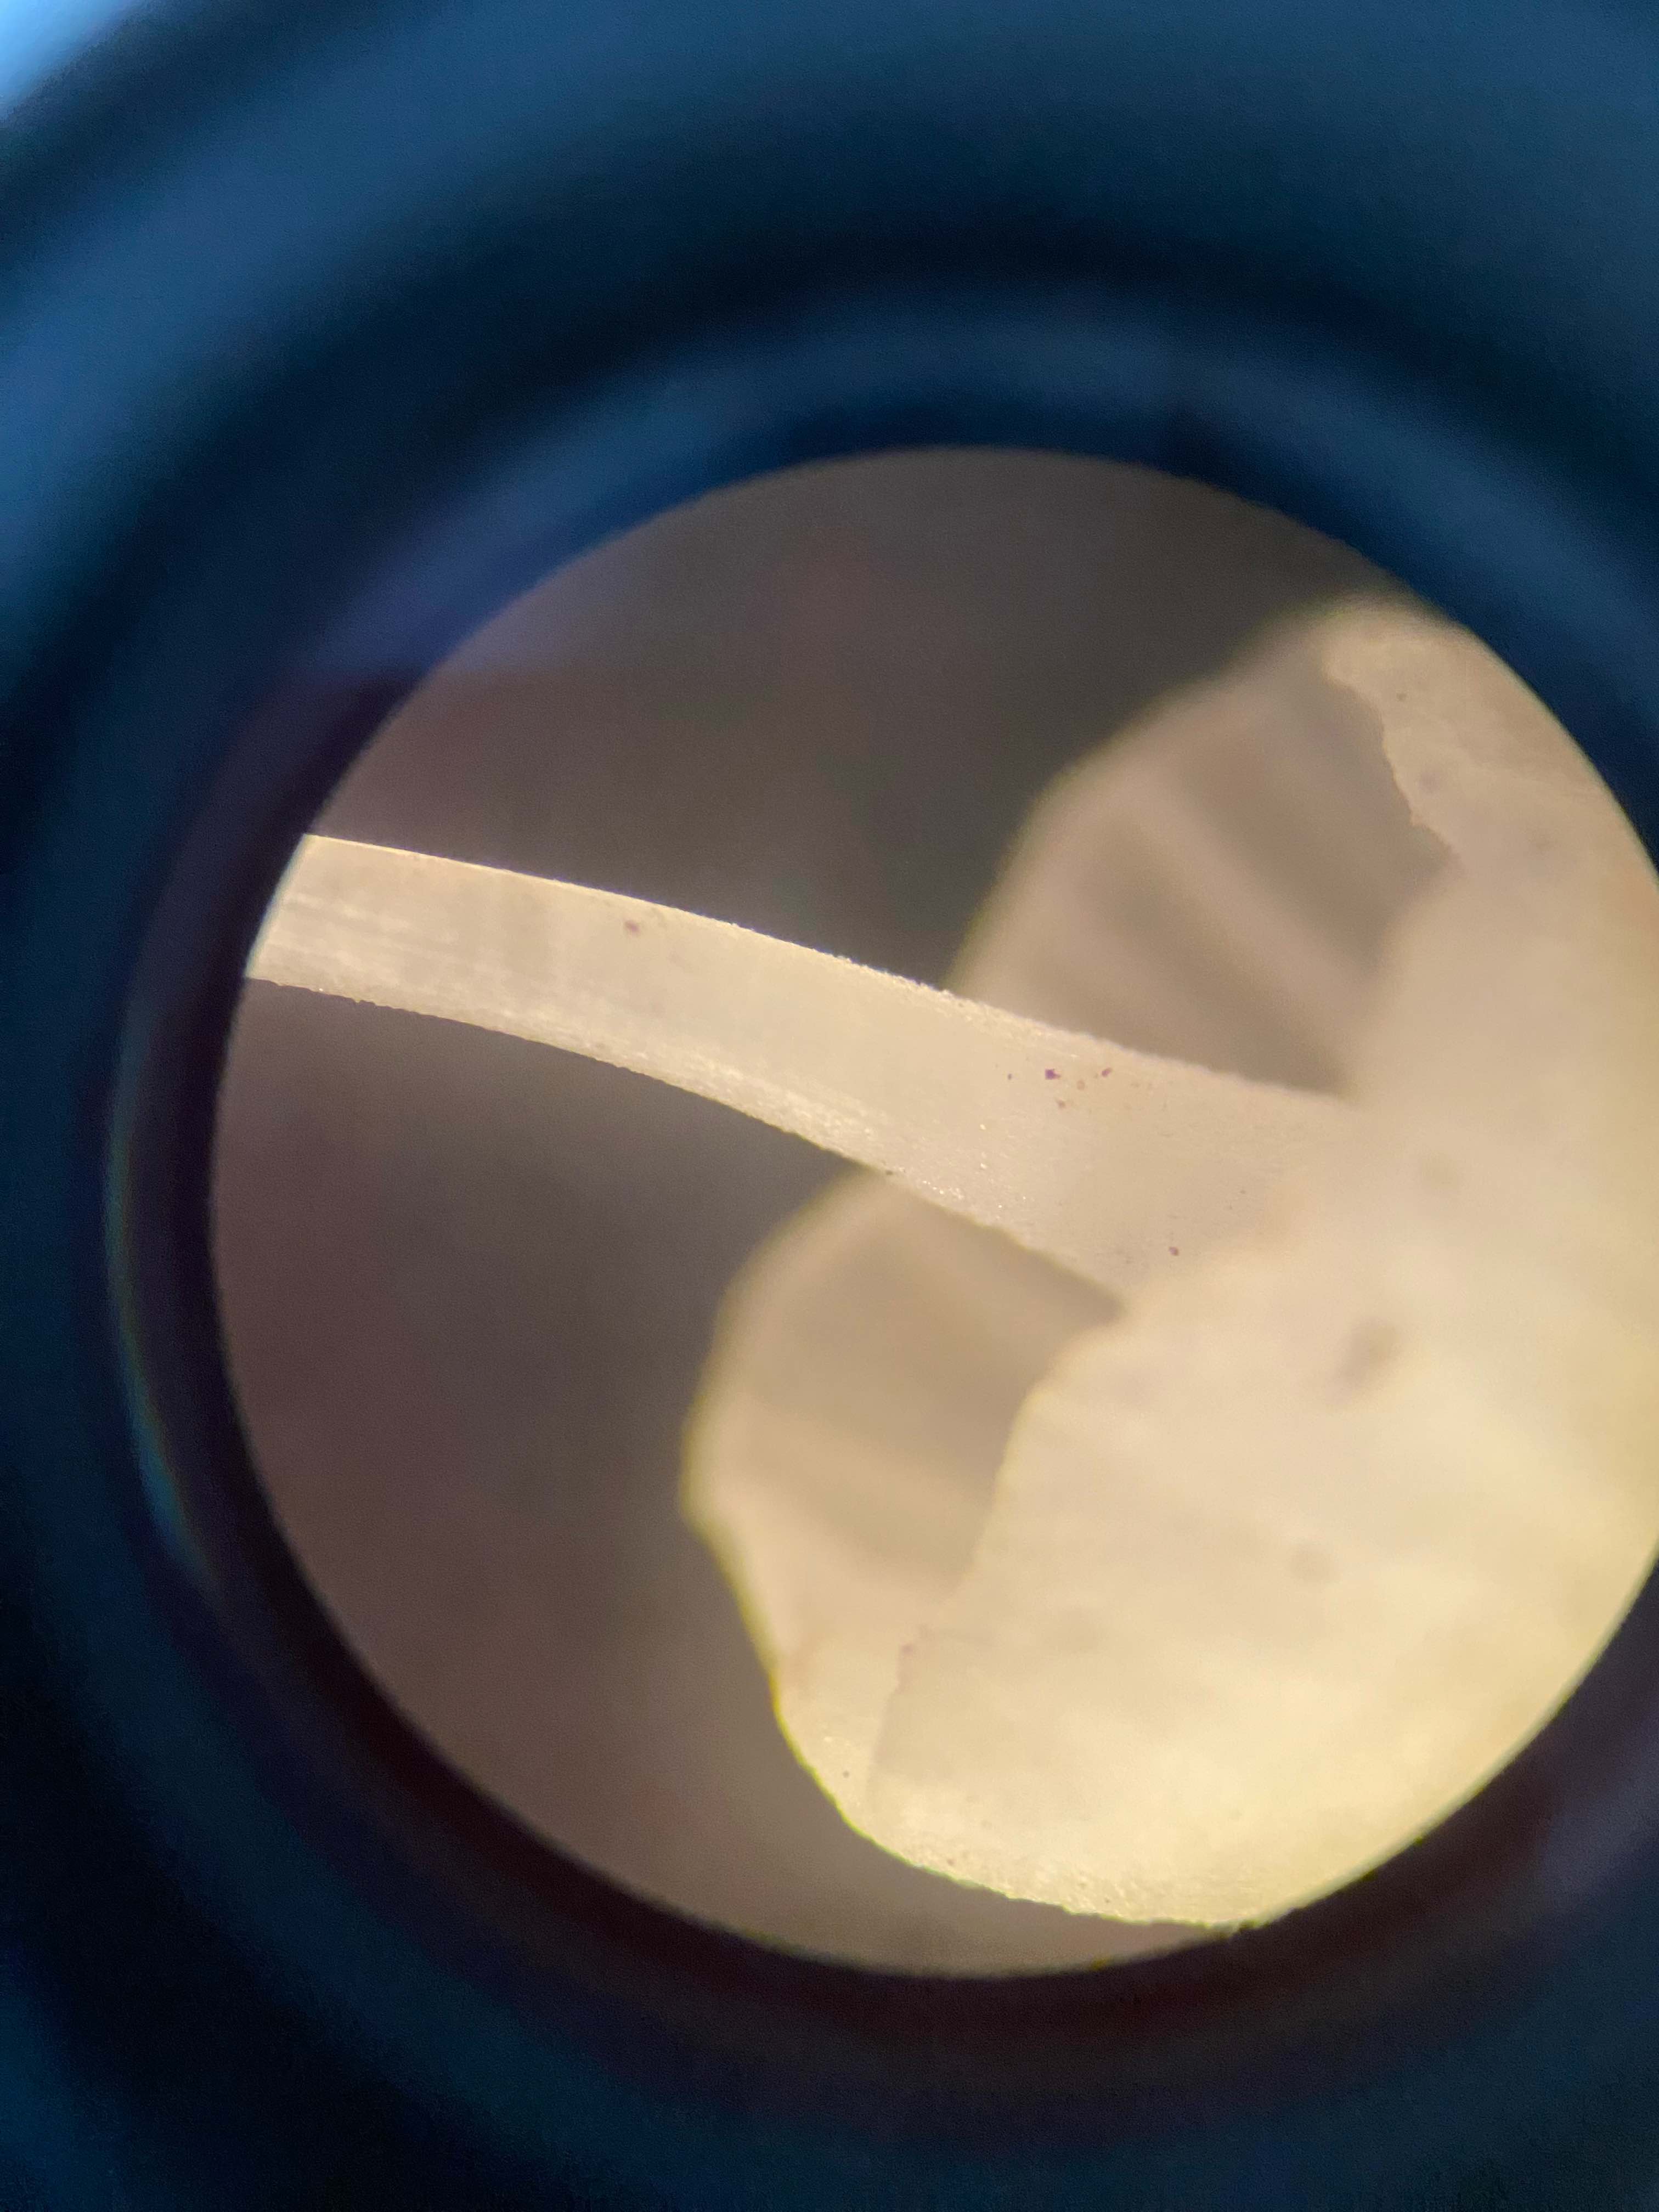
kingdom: Fungi
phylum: Basidiomycota
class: Agaricomycetes
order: Agaricales
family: Mycenaceae
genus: Atheniella
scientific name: Atheniella delectabilis
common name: nitrøs huesvamp
